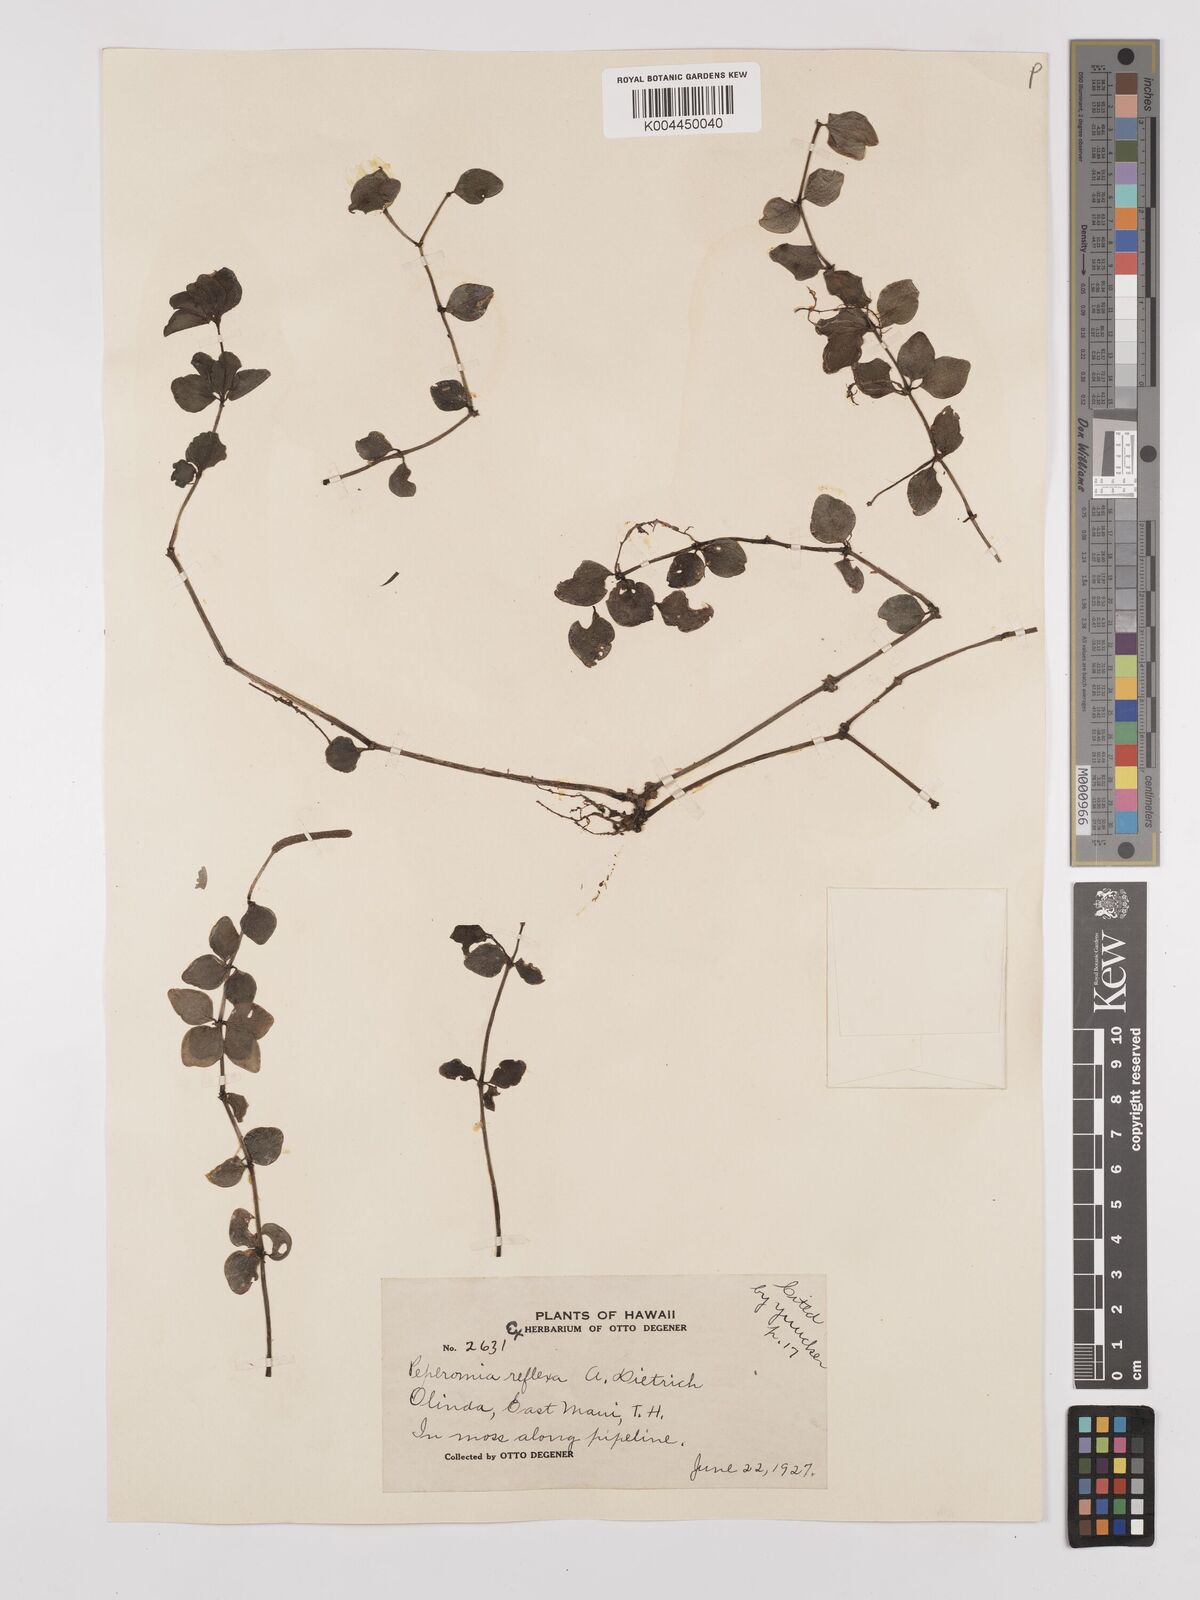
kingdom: Plantae
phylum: Tracheophyta
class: Magnoliopsida
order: Piperales
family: Piperaceae
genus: Peperomia
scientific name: Peperomia tetraphylla
